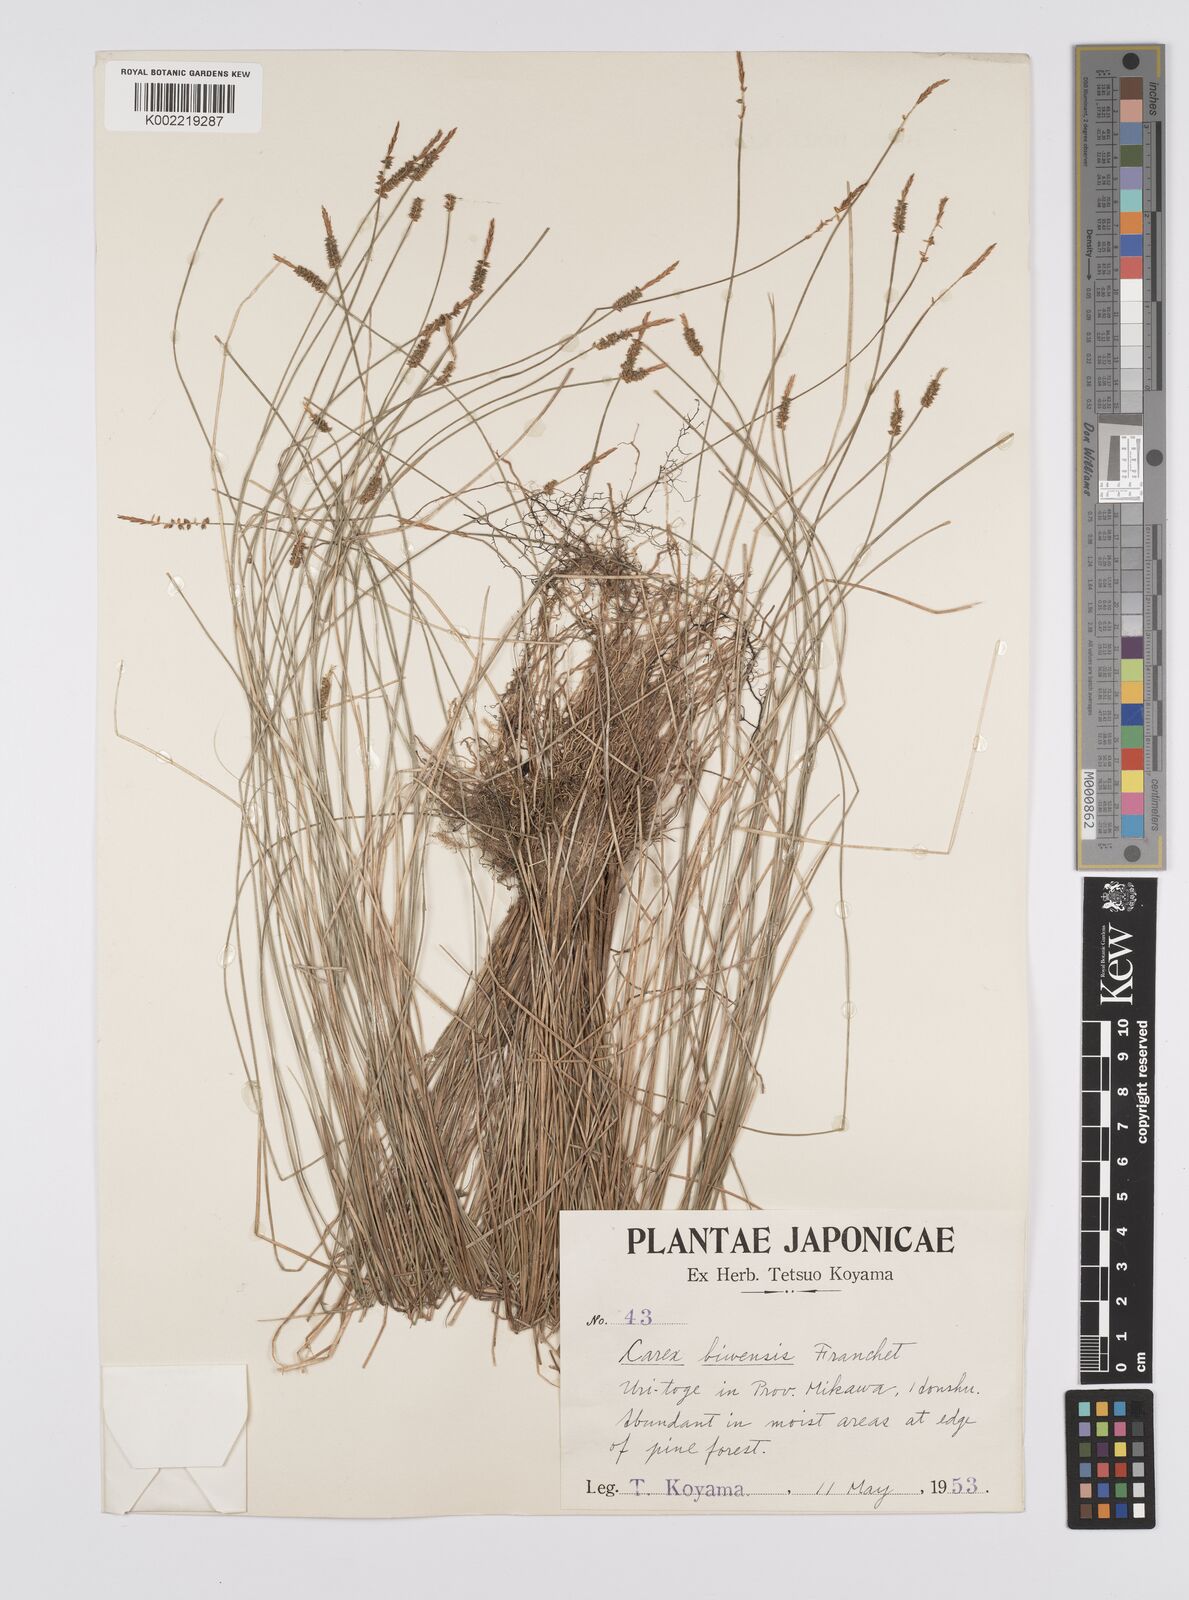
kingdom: Plantae
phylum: Tracheophyta
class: Liliopsida
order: Poales
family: Cyperaceae
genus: Carex
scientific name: Carex rara
